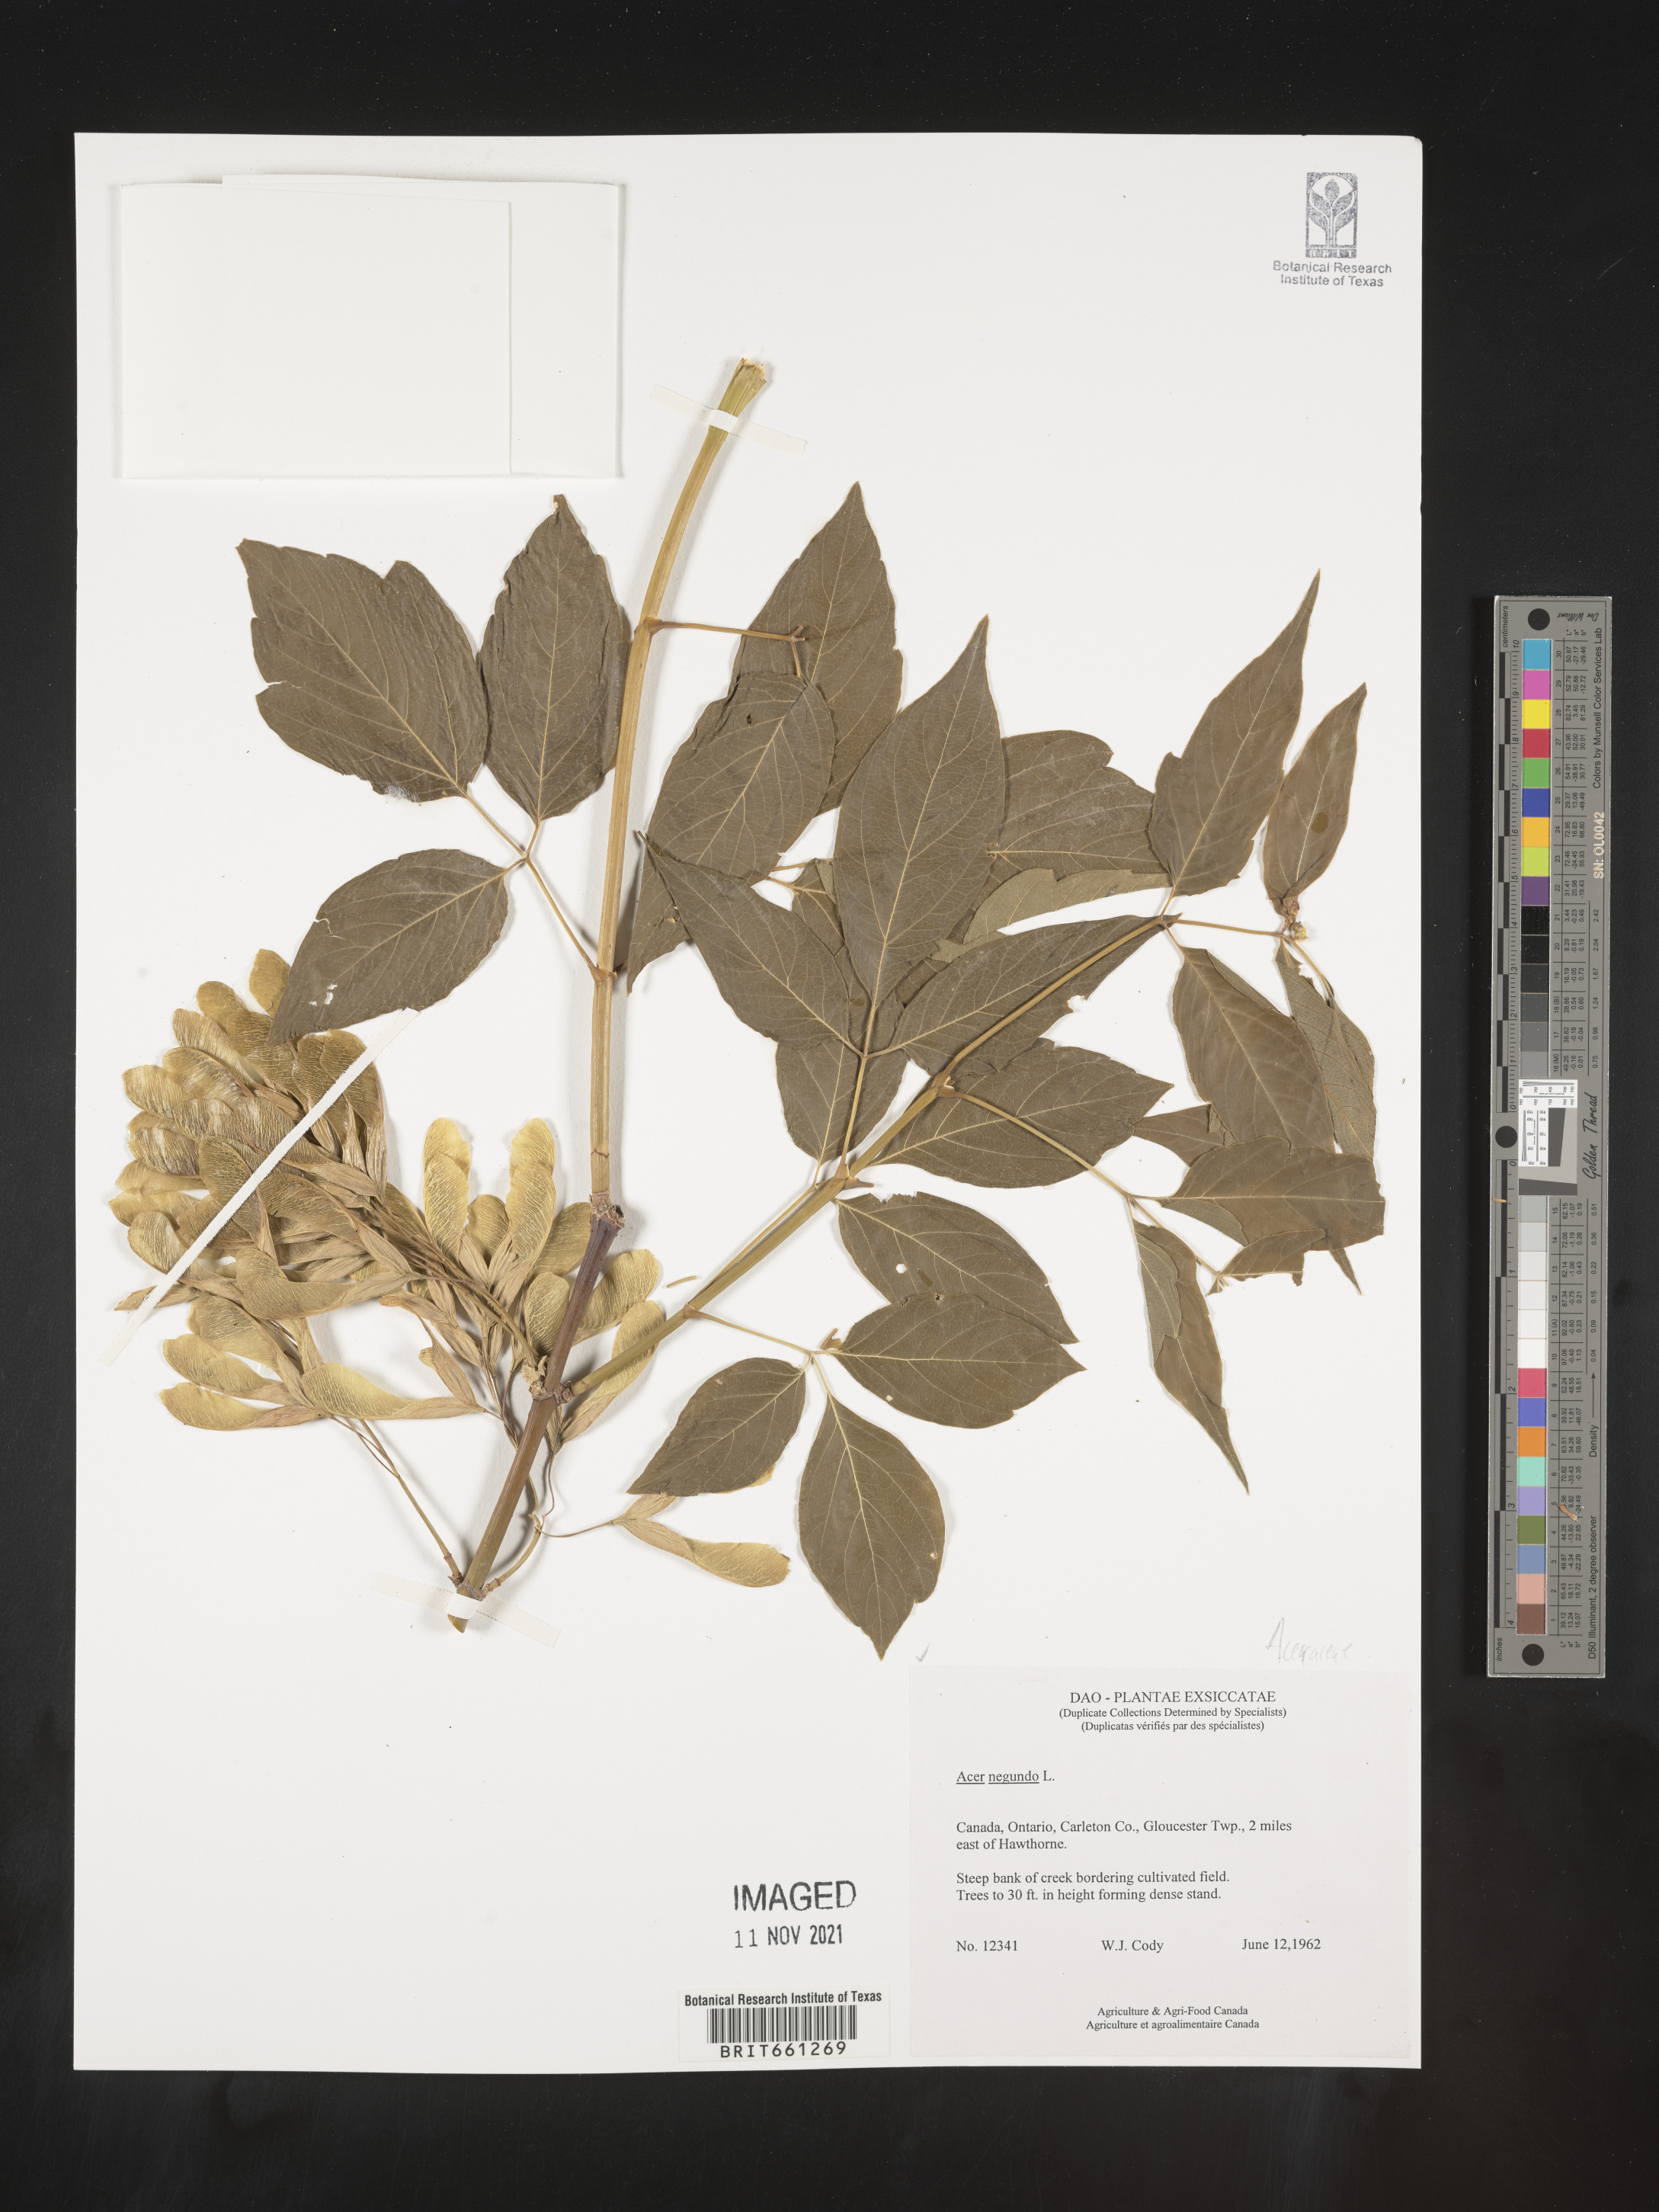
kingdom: Plantae
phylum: Tracheophyta
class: Magnoliopsida
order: Sapindales
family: Sapindaceae
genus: Acer
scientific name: Acer negundo
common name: Ashleaf maple
